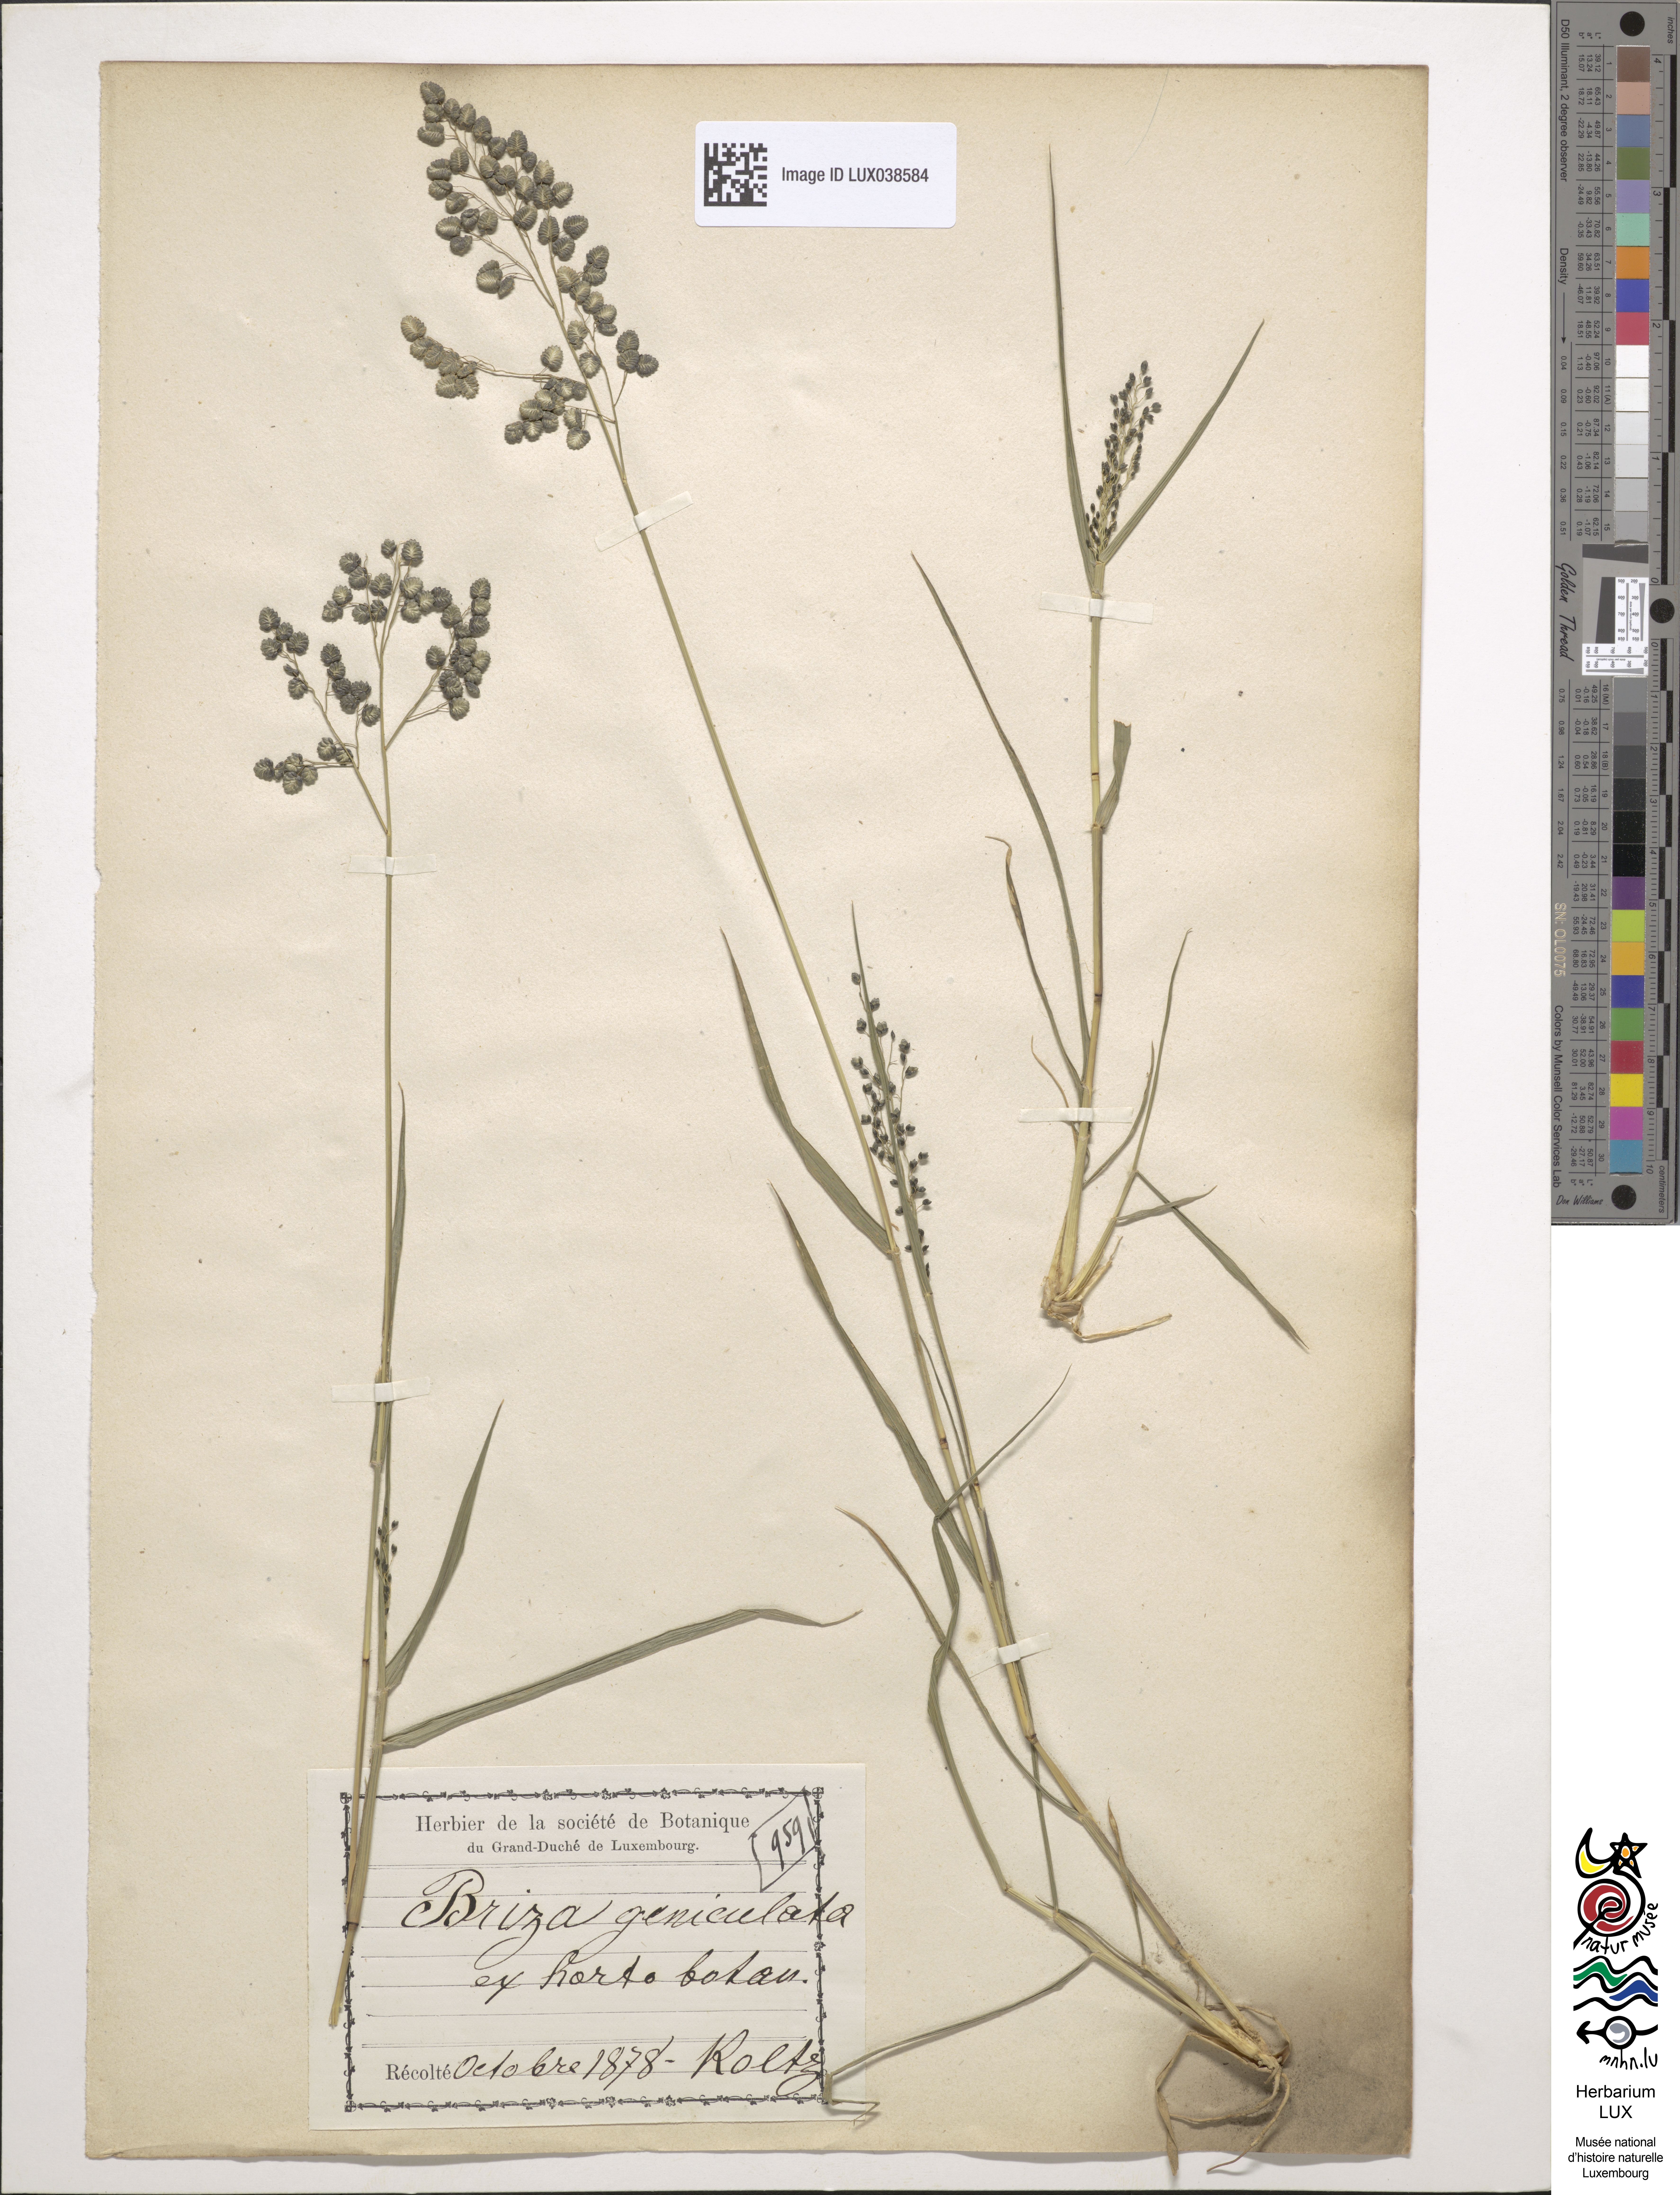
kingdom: Plantae
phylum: Tracheophyta
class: Liliopsida
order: Poales
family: Poaceae
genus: Eragrostis
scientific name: Eragrostis obtusa
